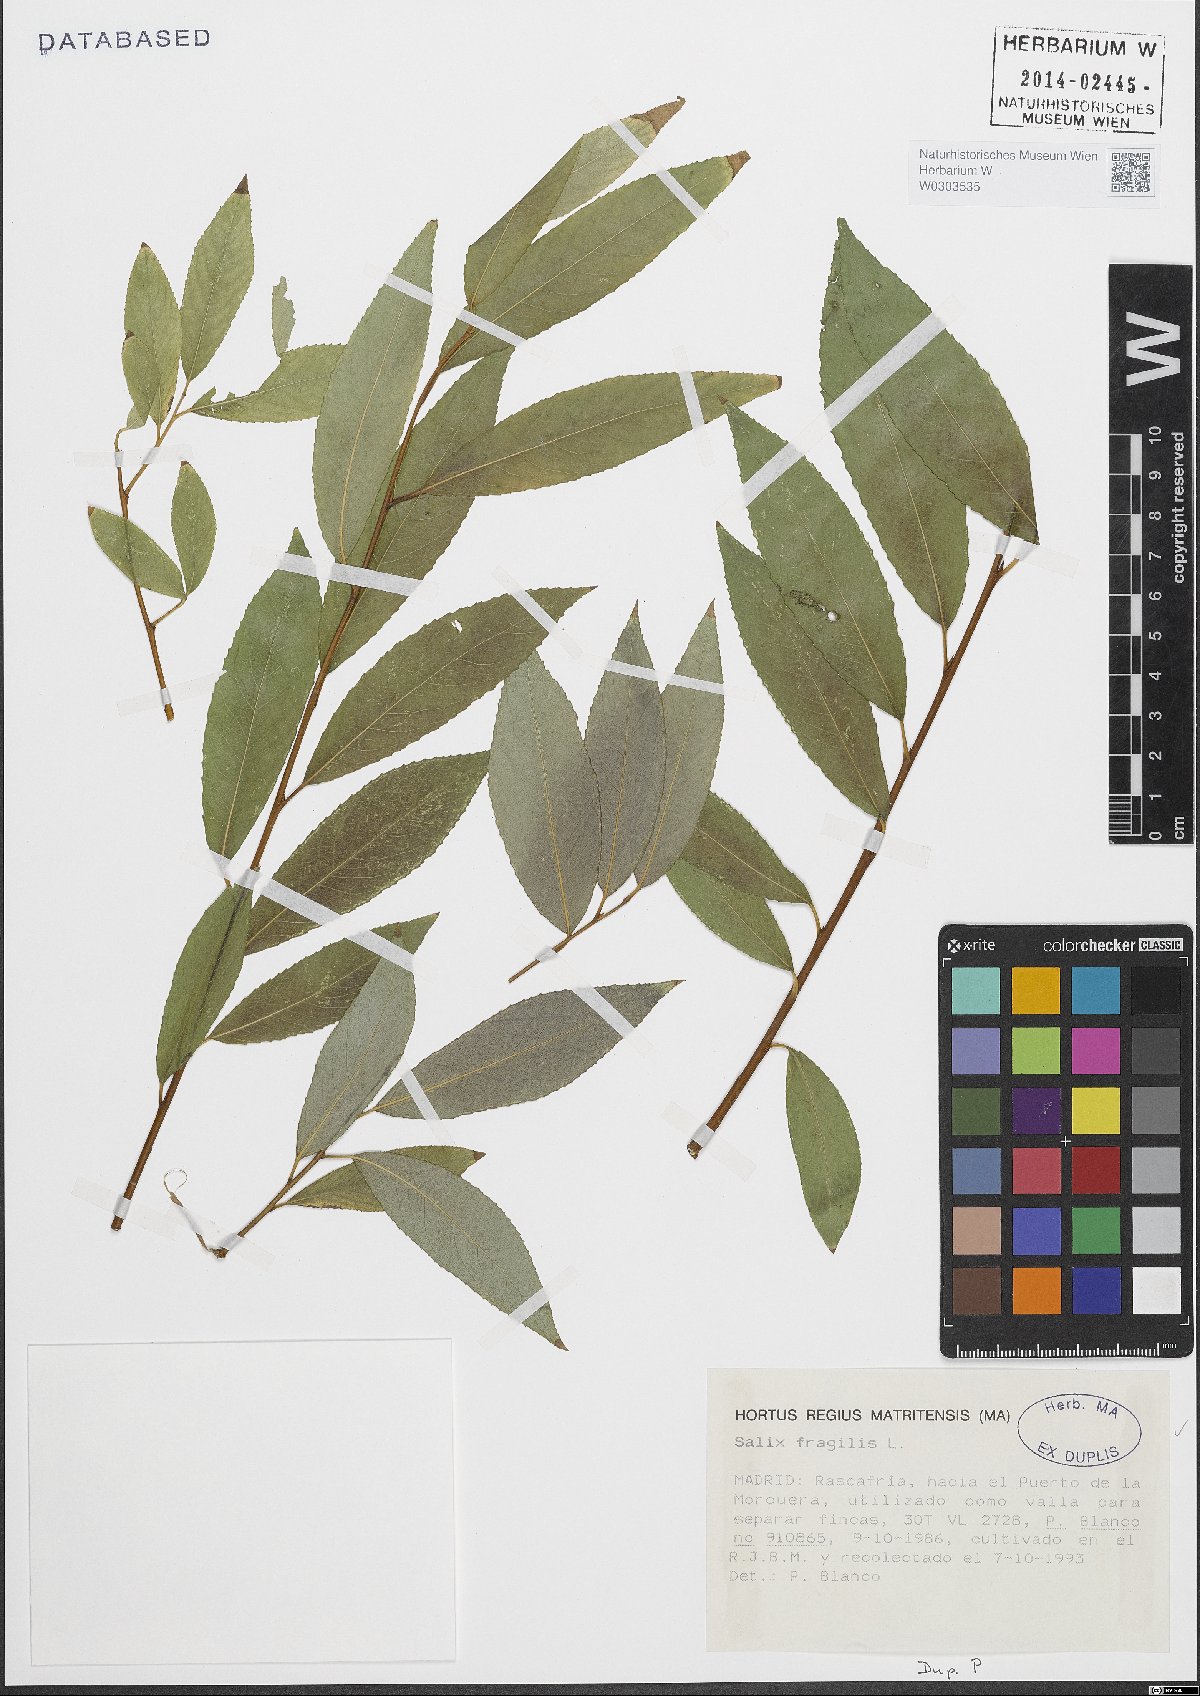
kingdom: Plantae
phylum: Tracheophyta
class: Magnoliopsida
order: Malpighiales
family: Salicaceae
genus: Salix
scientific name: Salix fragilis
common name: Crack willow
